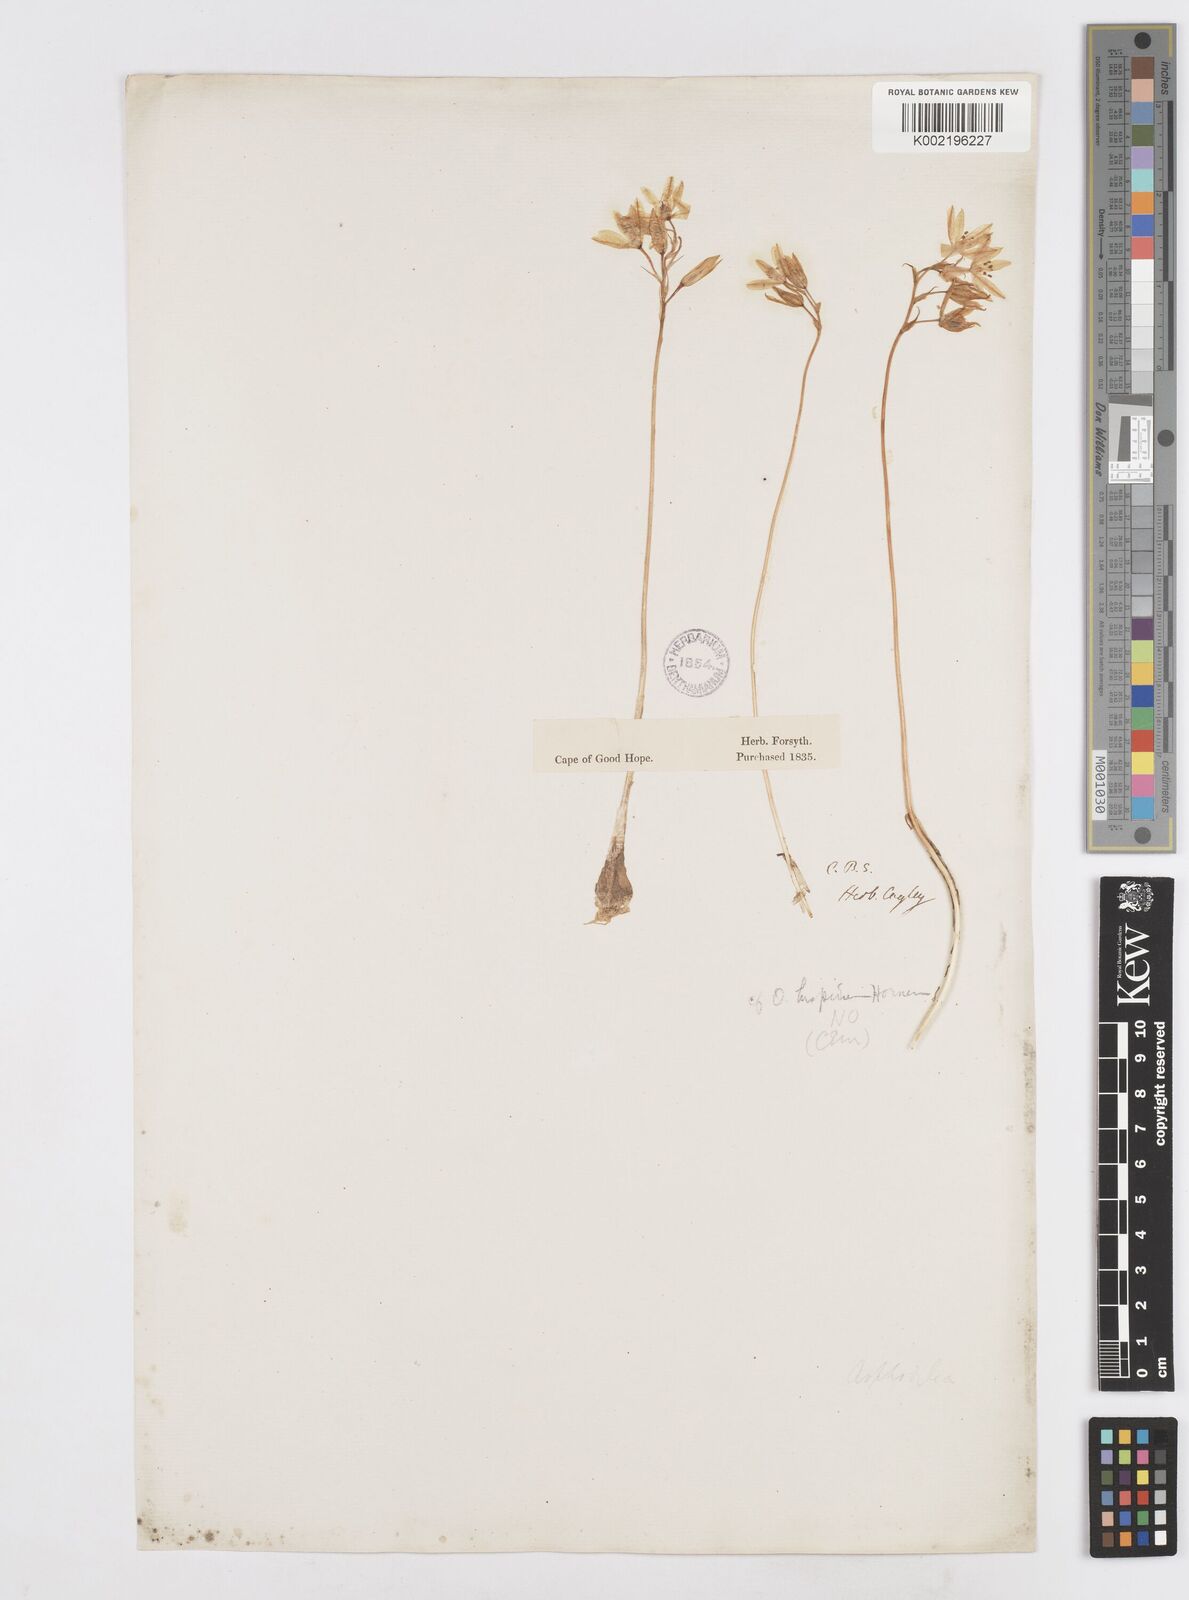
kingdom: Plantae
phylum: Tracheophyta
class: Liliopsida
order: Asparagales
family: Asparagaceae
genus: Ornithogalum
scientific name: Ornithogalum hispidum
